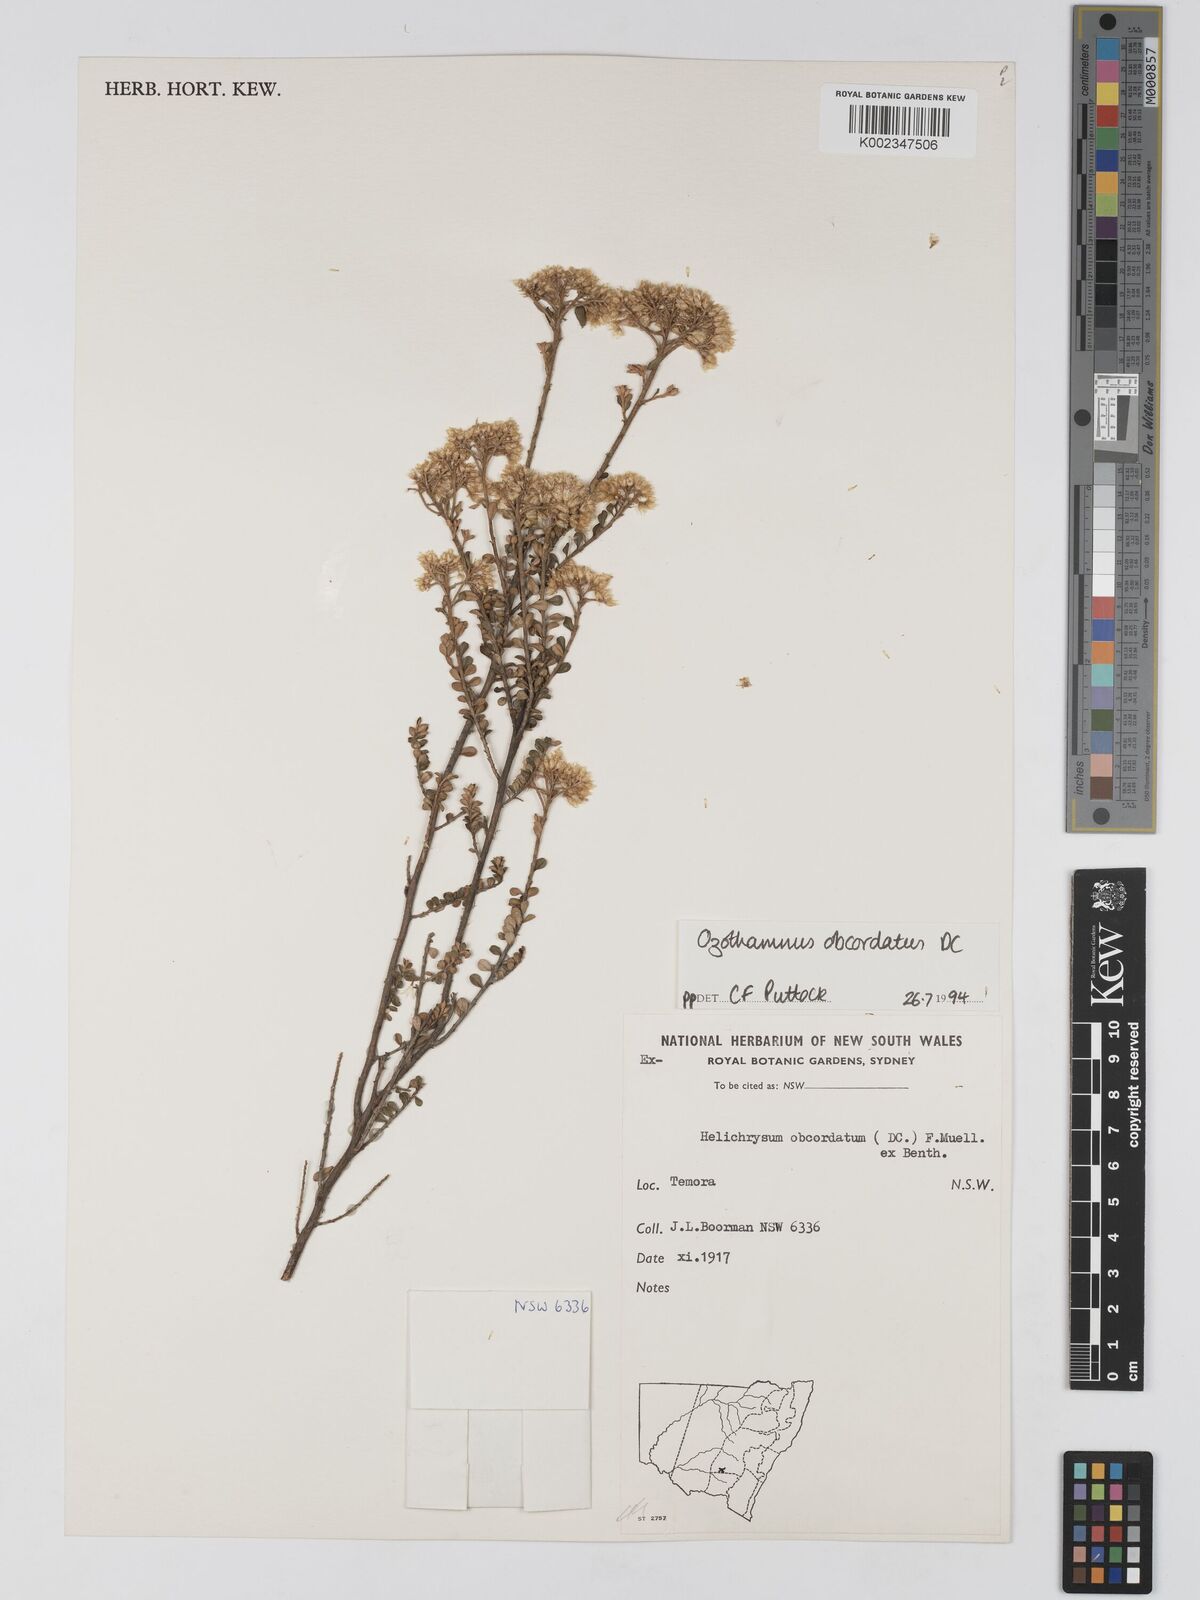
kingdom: Plantae
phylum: Tracheophyta
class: Magnoliopsida
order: Asterales
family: Asteraceae
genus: Ozothamnus
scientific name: Ozothamnus
